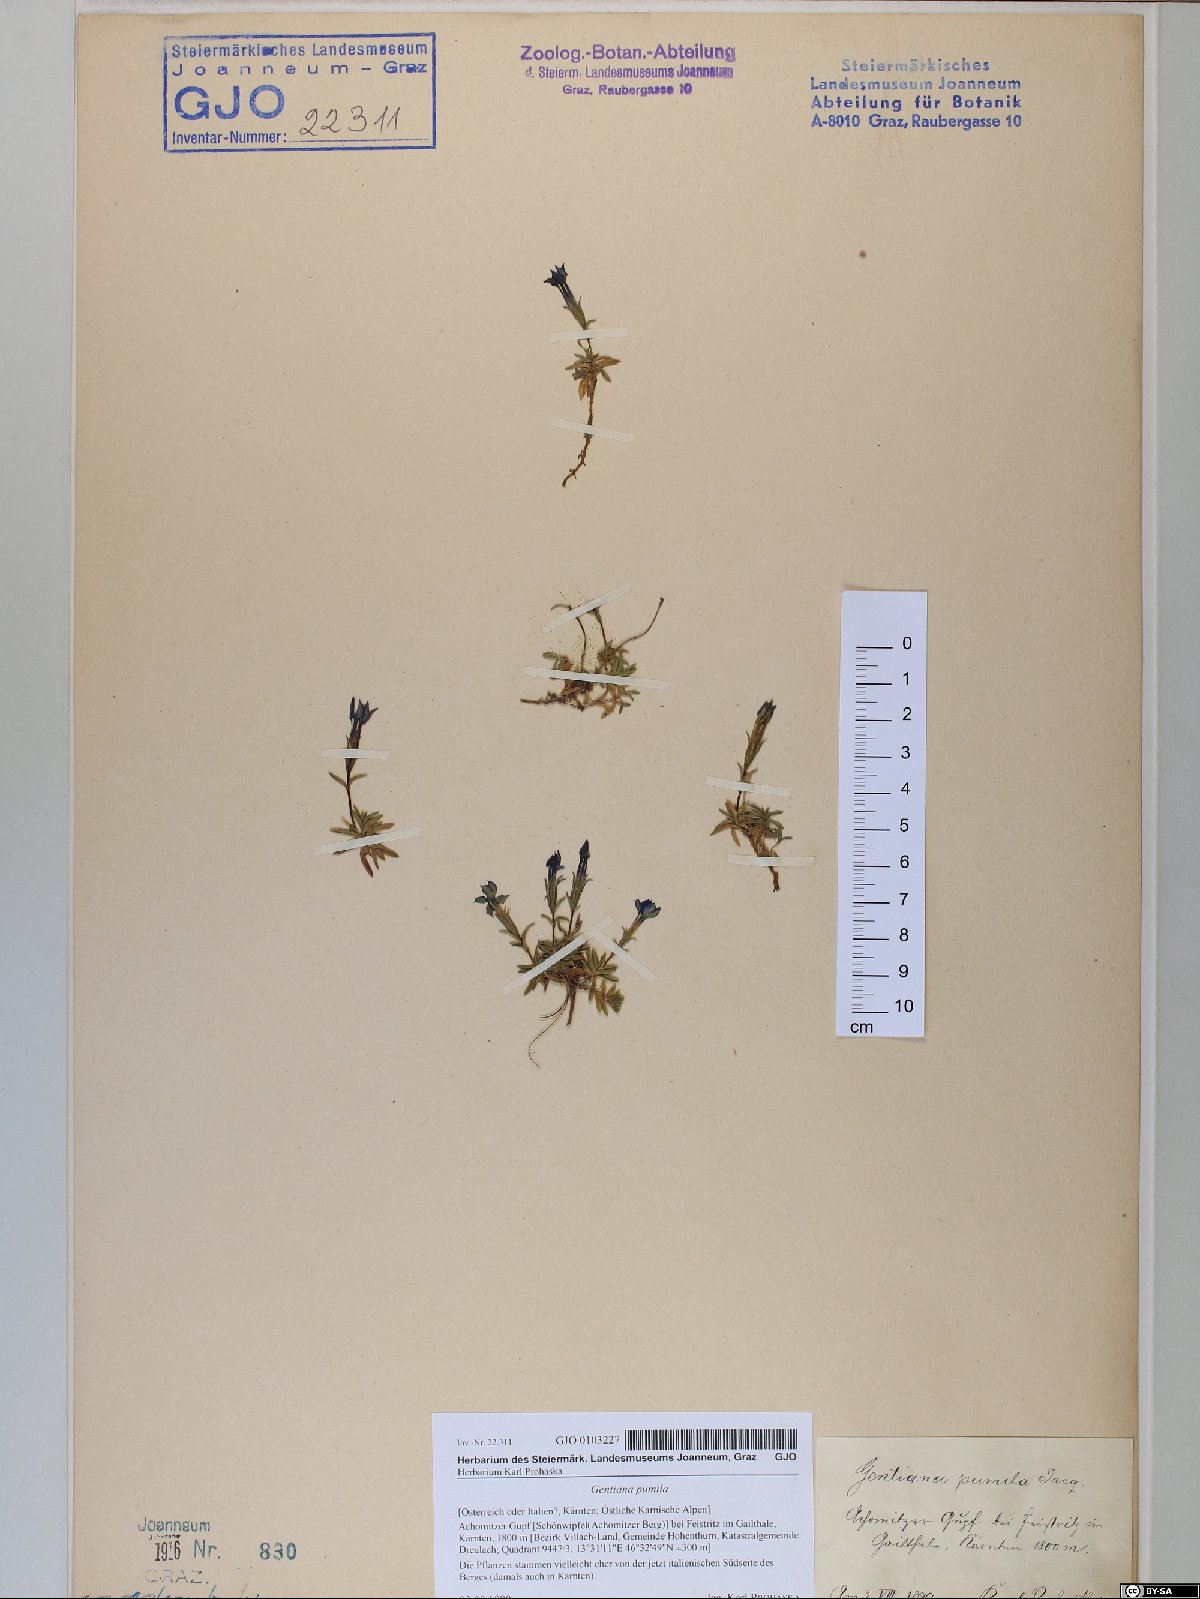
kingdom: Plantae
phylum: Tracheophyta
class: Magnoliopsida
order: Gentianales
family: Gentianaceae
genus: Gentiana
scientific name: Gentiana pumila
